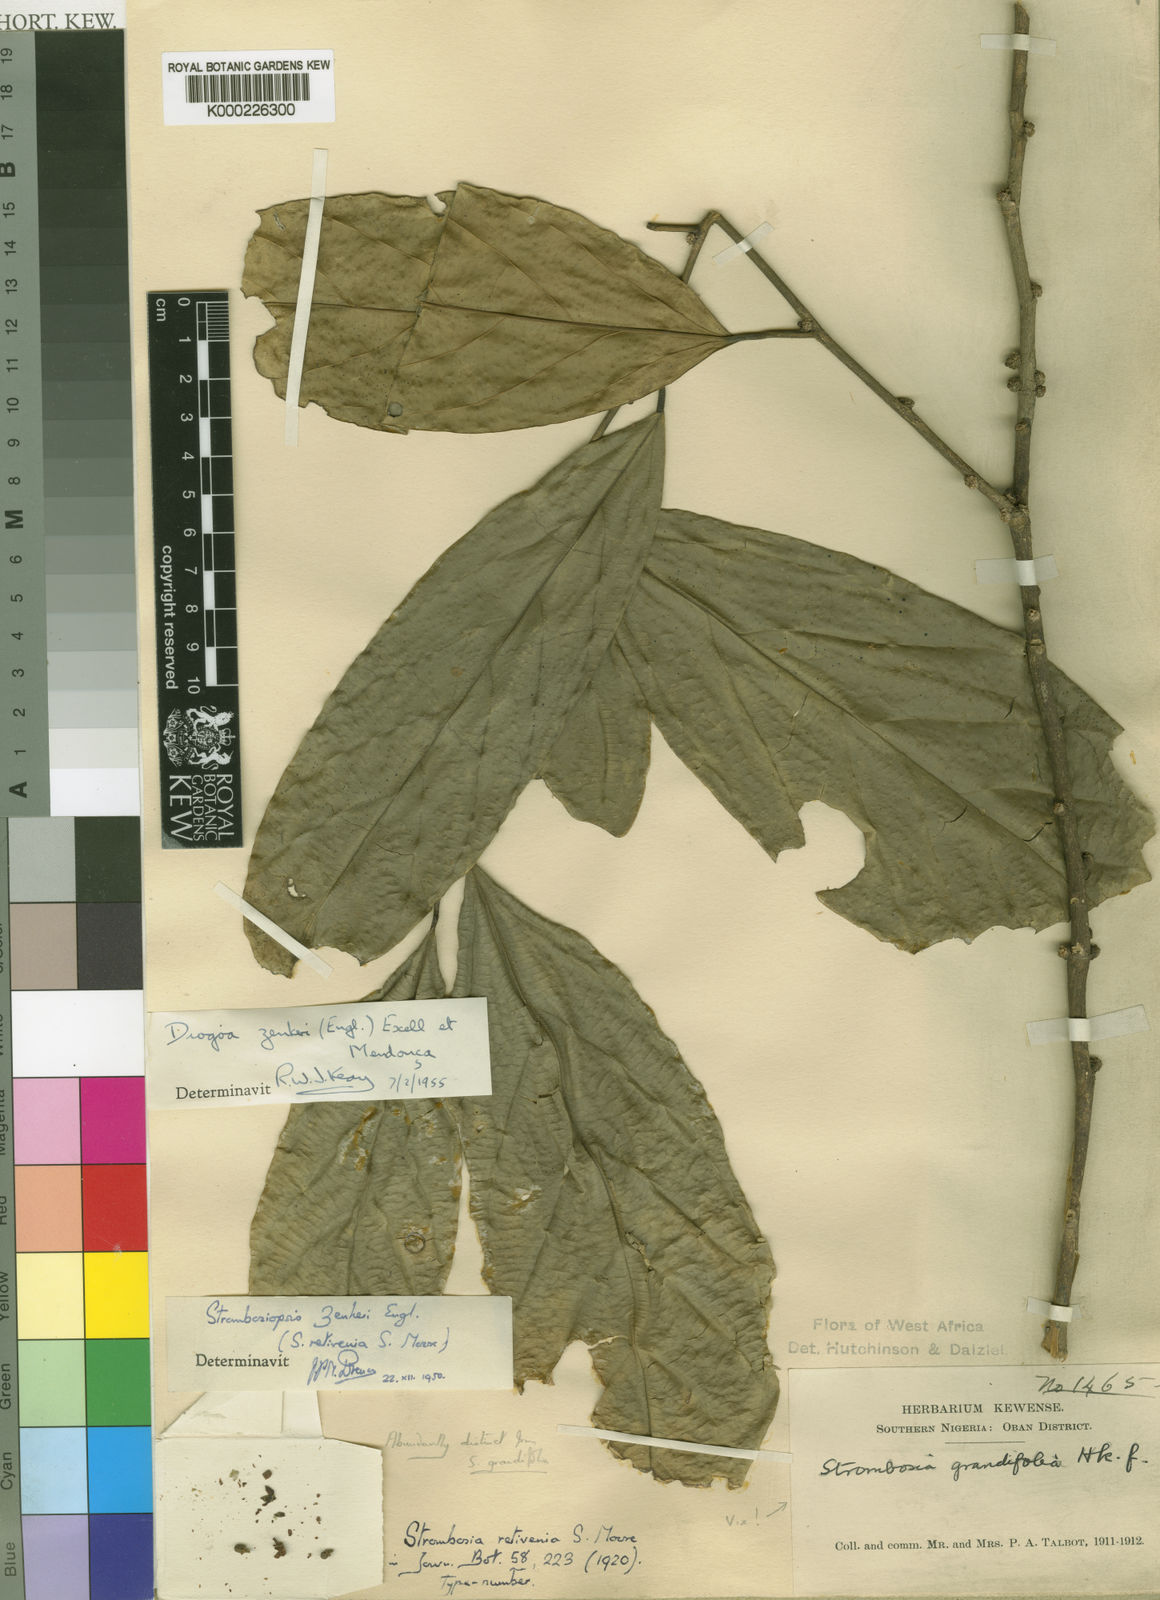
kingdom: Plantae
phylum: Tracheophyta
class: Magnoliopsida
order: Santalales
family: Strombosiaceae
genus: Diogoa
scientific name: Diogoa
